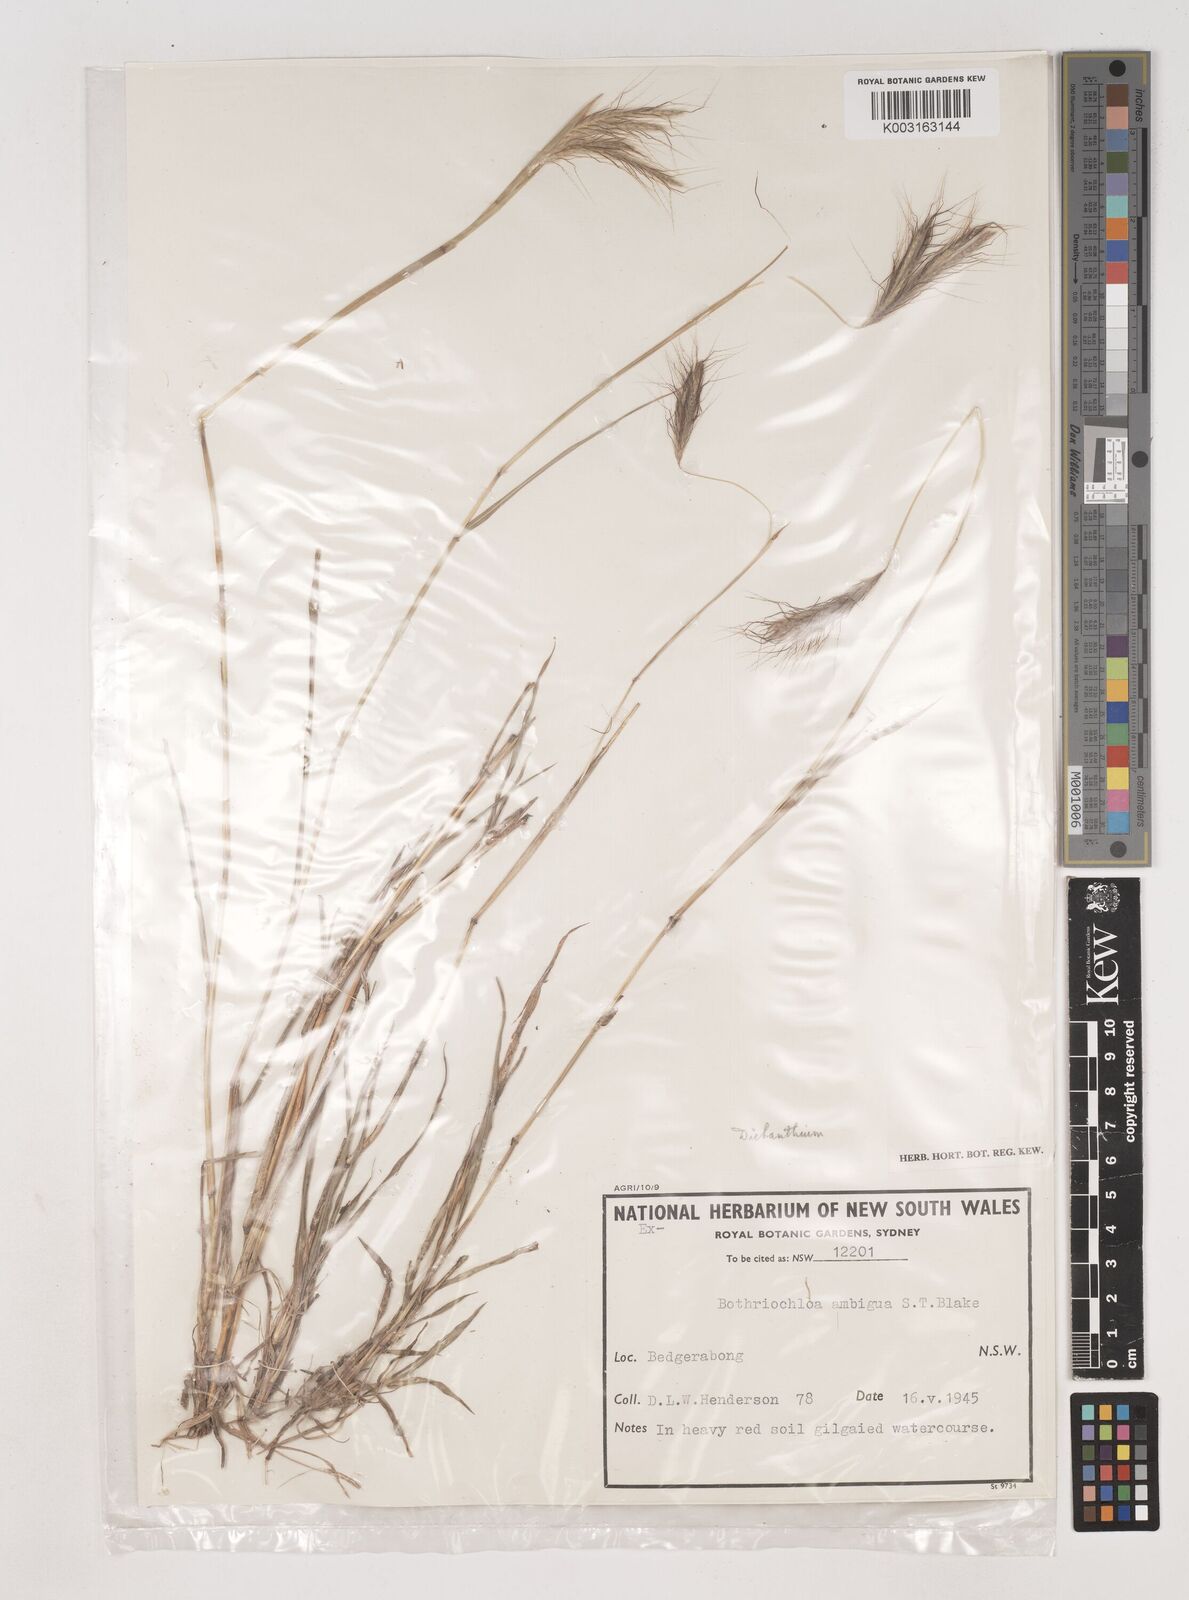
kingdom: Plantae
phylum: Tracheophyta
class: Liliopsida
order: Poales
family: Poaceae
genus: Dichanthium
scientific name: Dichanthium sericeum
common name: Silky bluestem
